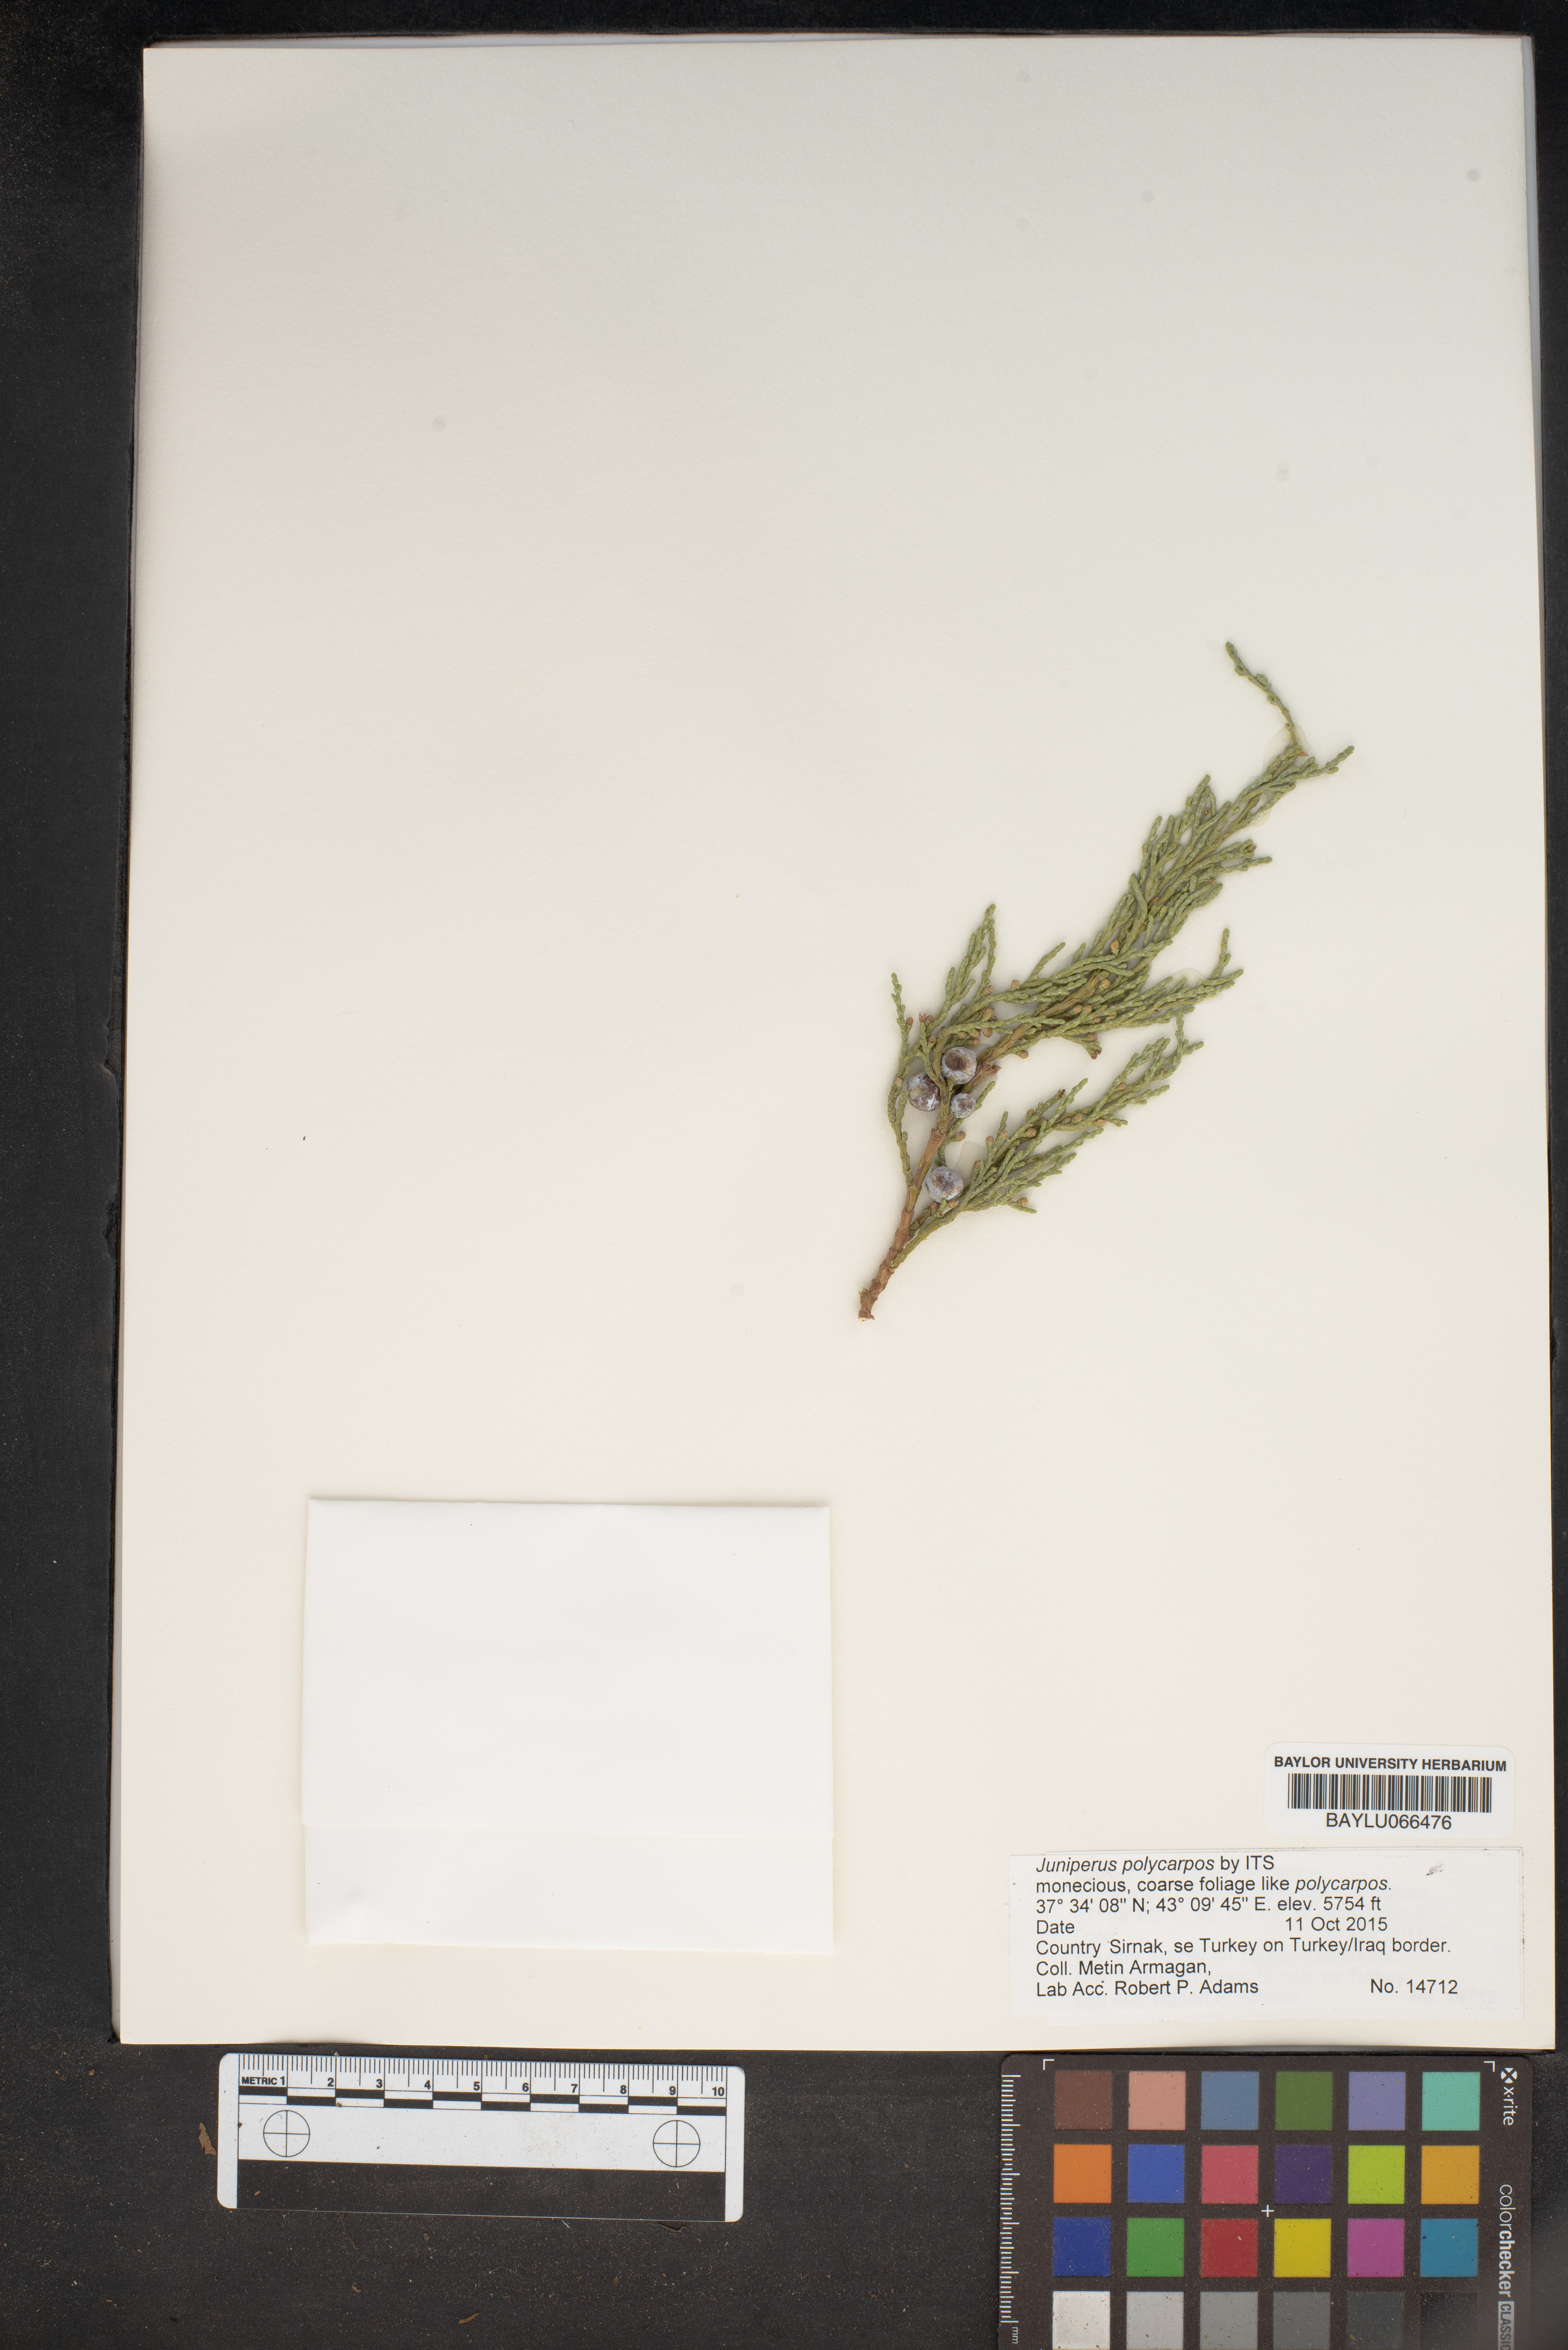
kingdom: Plantae
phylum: Tracheophyta
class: Pinopsida
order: Pinales
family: Cupressaceae
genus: Juniperus
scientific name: Juniperus excelsa
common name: Crimean juniper
